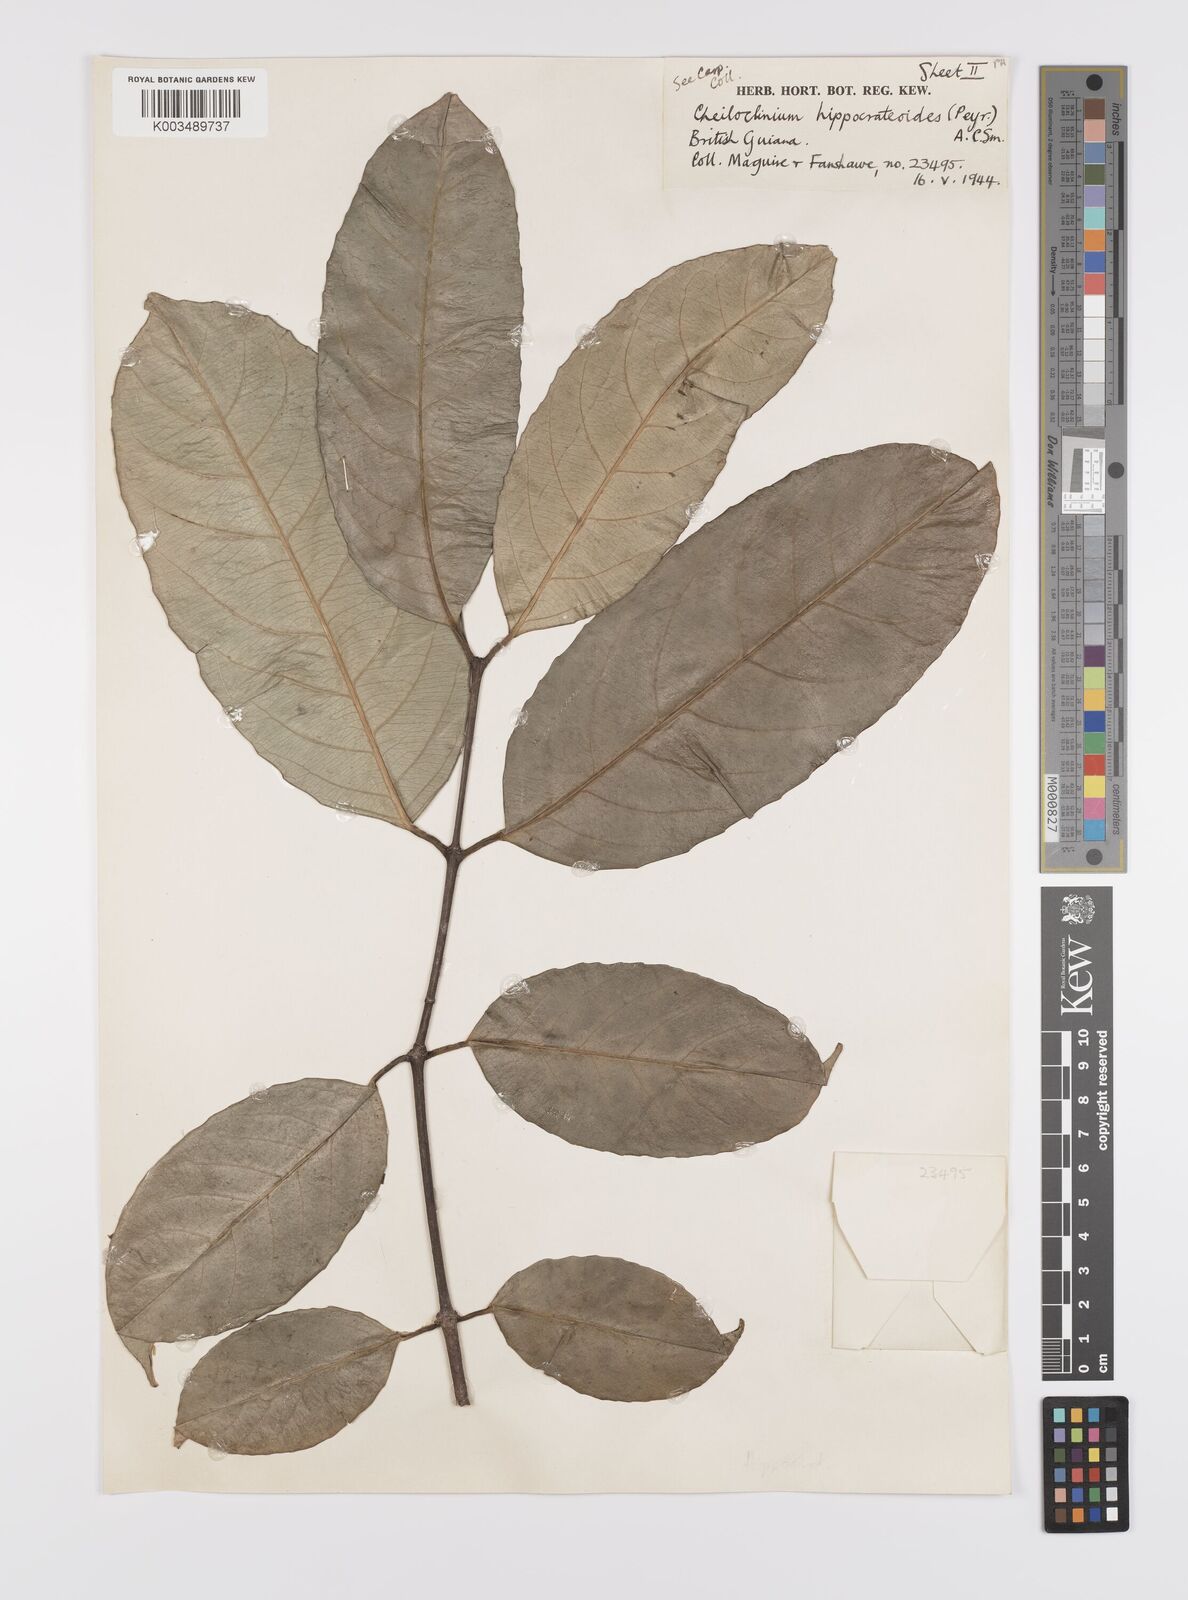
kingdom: Plantae
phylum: Tracheophyta
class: Magnoliopsida
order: Celastrales
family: Celastraceae
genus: Cheiloclinium
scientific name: Cheiloclinium hippocrateoides
